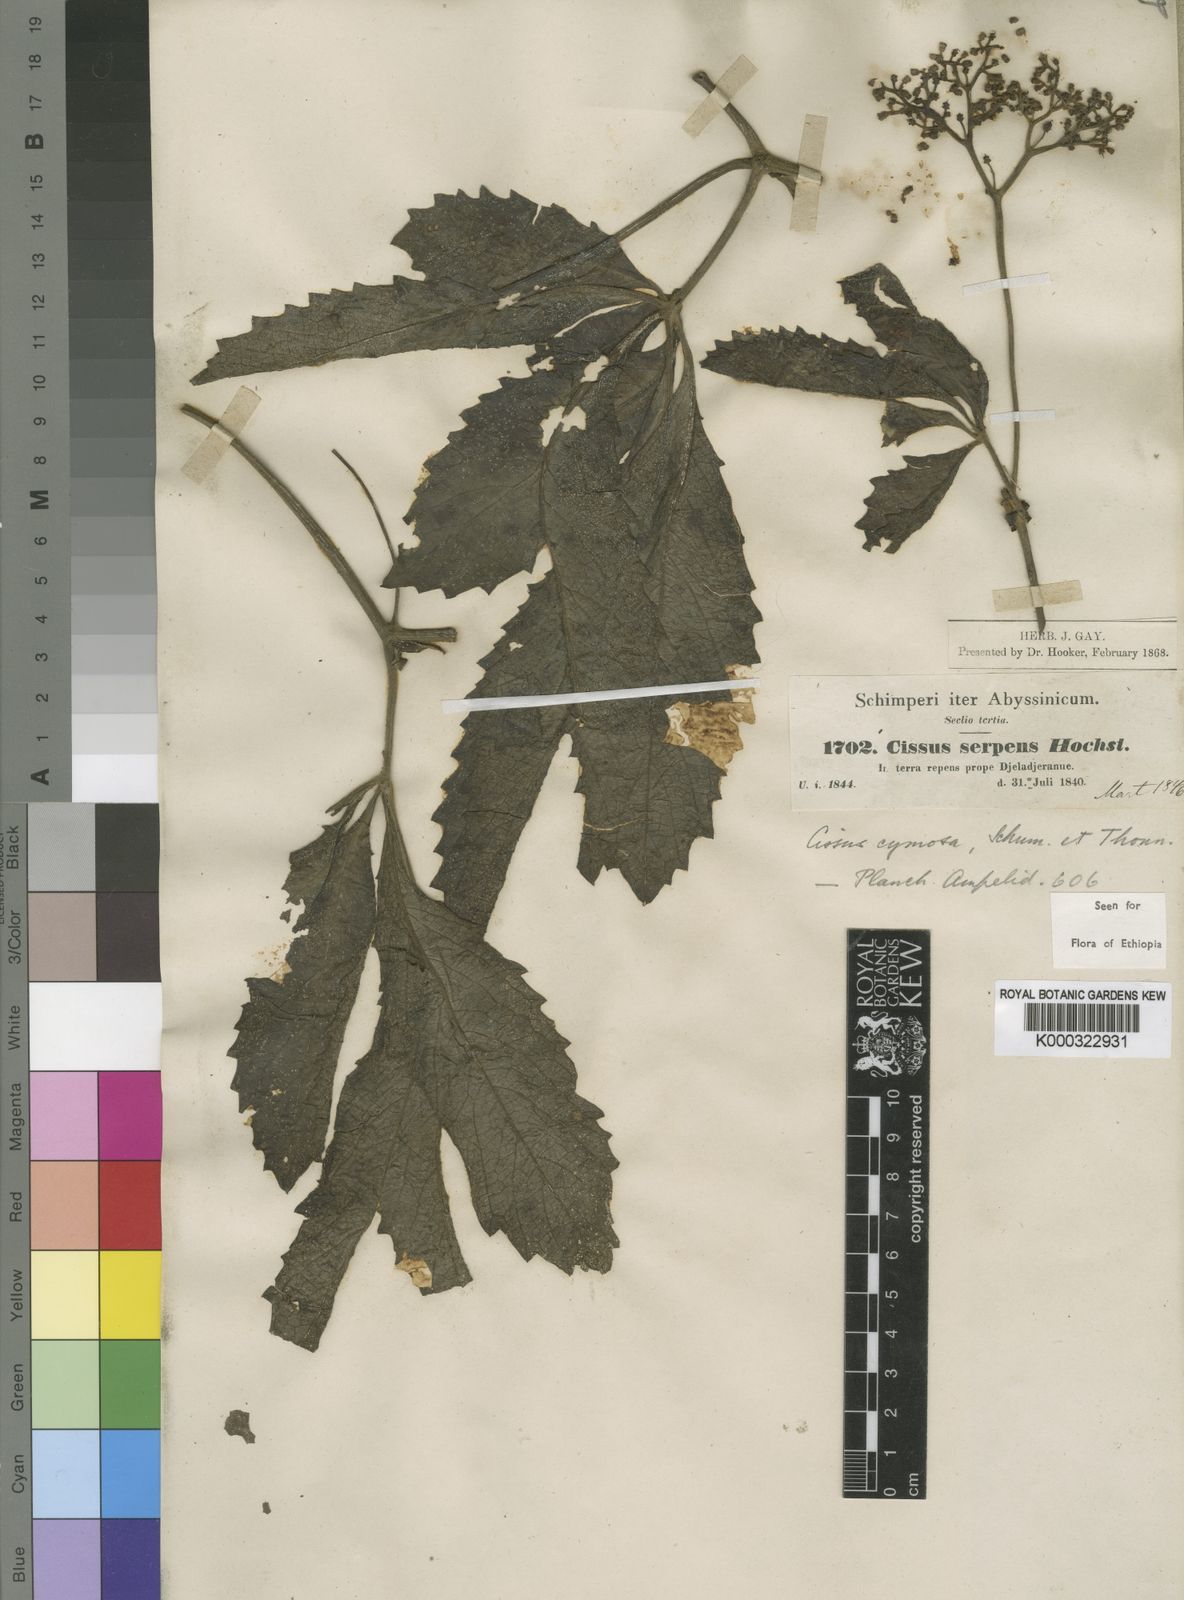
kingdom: Plantae
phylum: Tracheophyta
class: Magnoliopsida
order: Vitales
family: Vitaceae
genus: Cyphostemma
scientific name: Cyphostemma serpens
